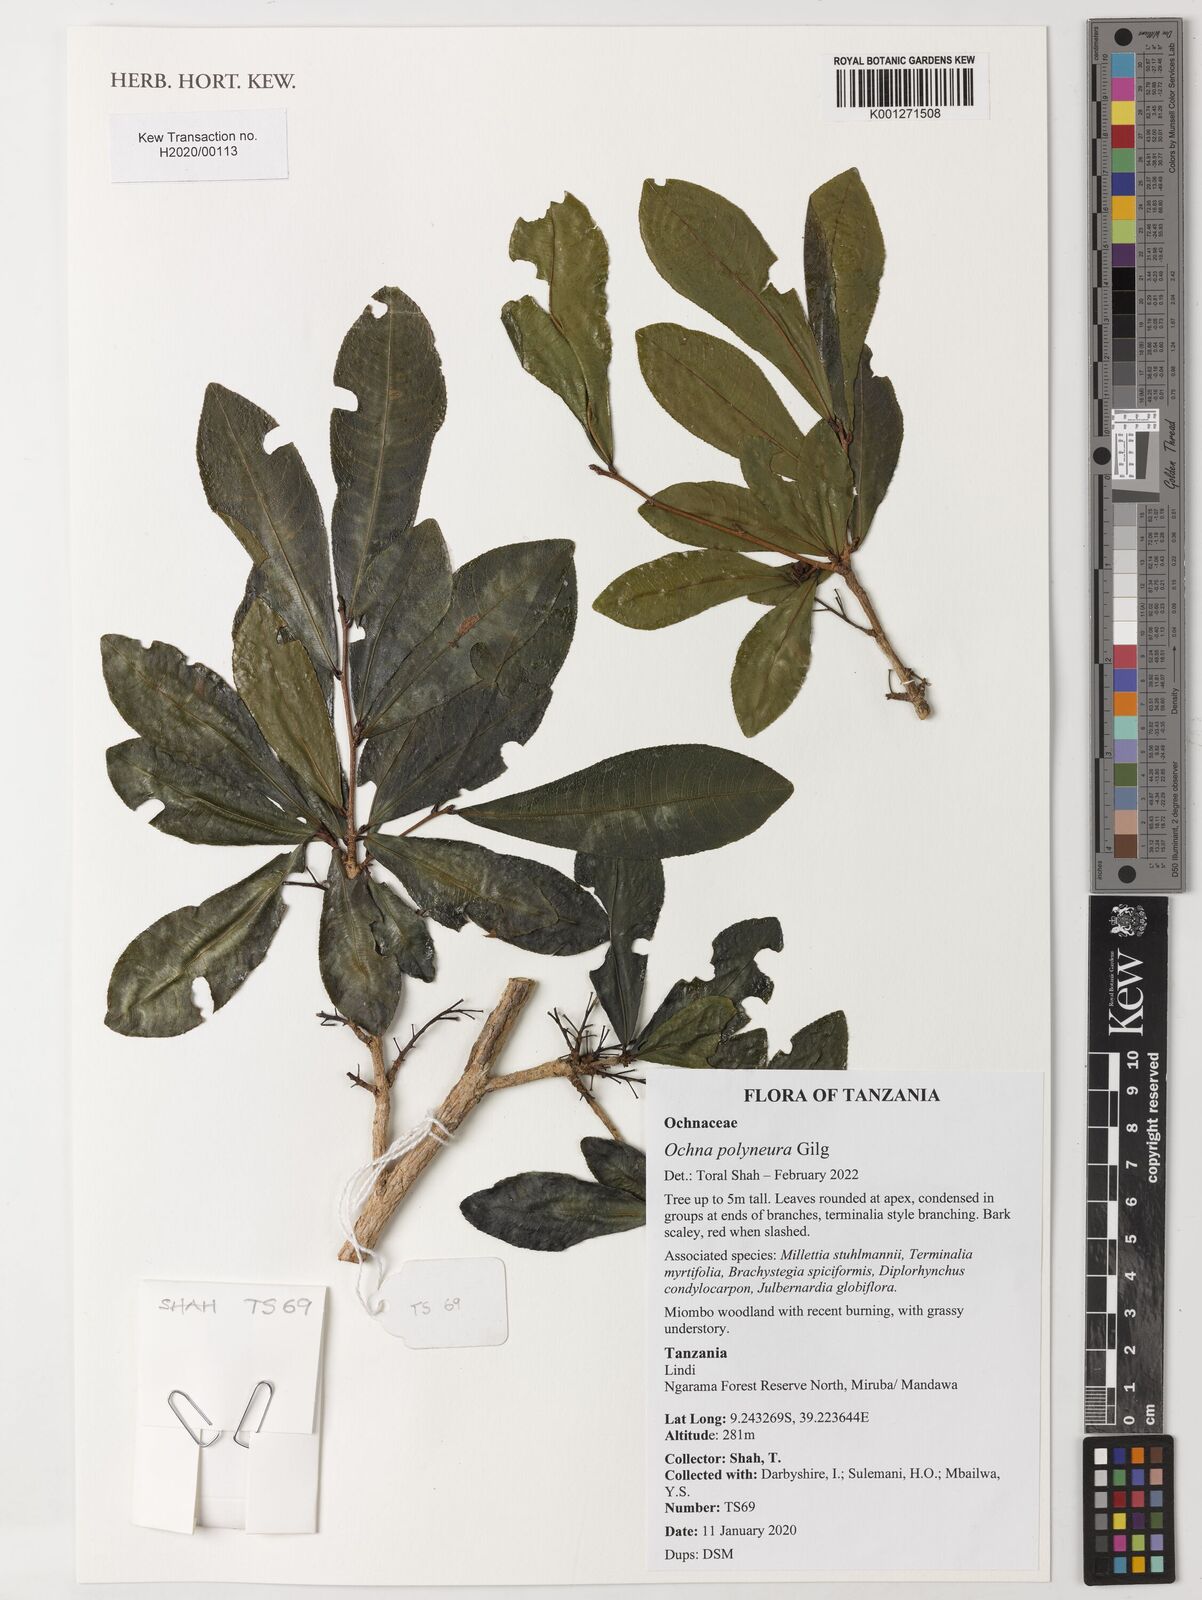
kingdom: Plantae
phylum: Tracheophyta
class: Magnoliopsida
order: Malpighiales
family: Ochnaceae
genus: Ochna
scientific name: Ochna polyneura
